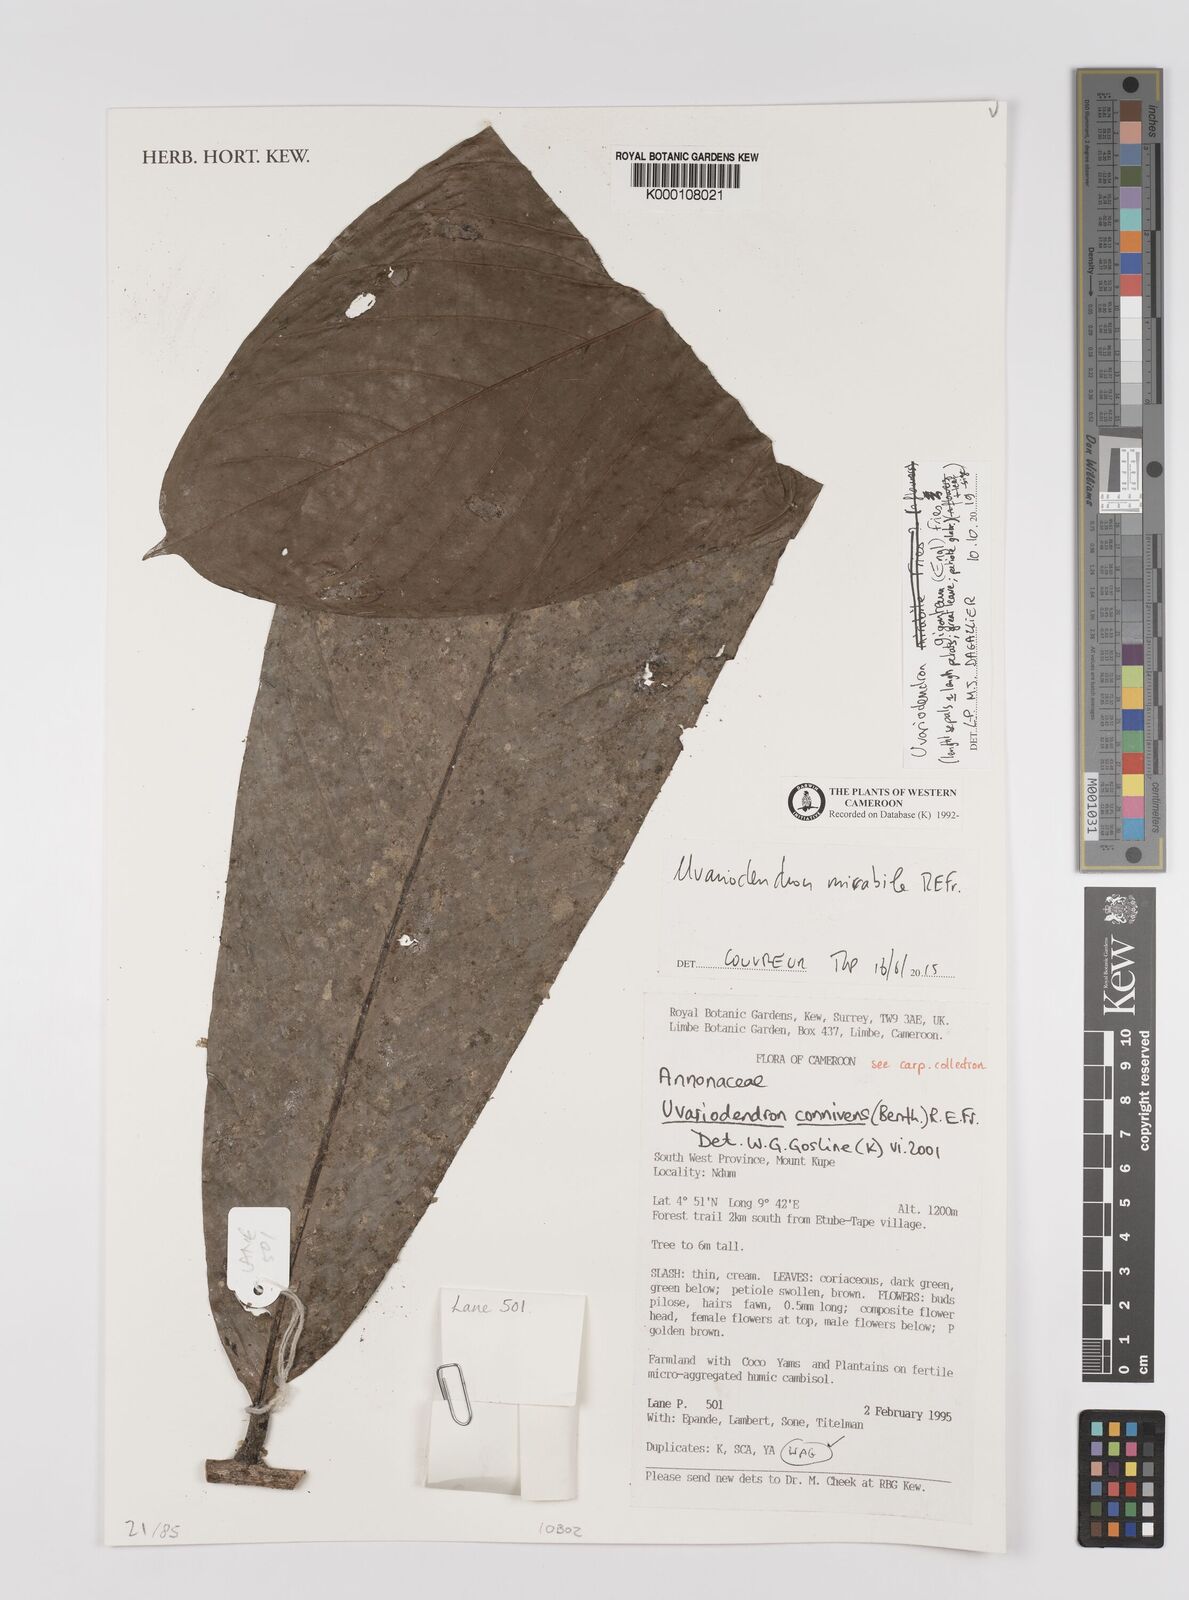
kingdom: Plantae
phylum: Tracheophyta
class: Magnoliopsida
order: Magnoliales
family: Annonaceae
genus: Uvariodendron
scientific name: Uvariodendron connivens
